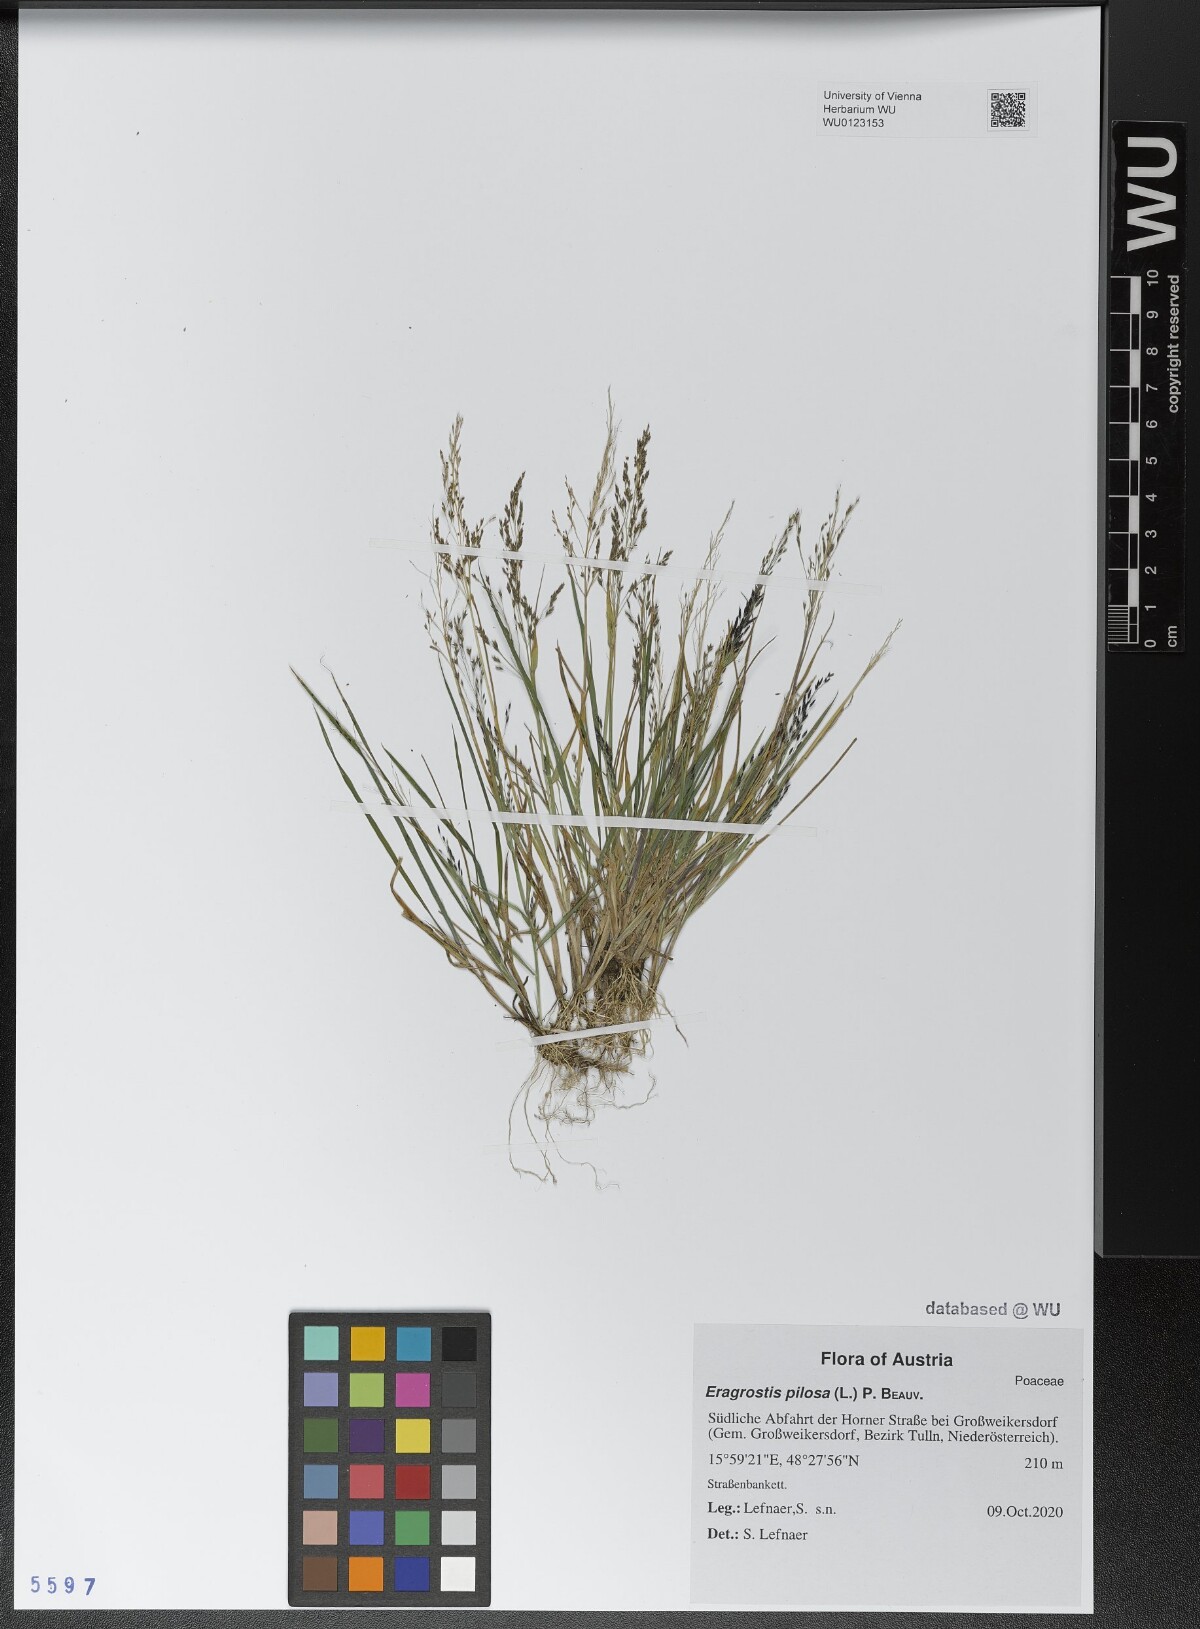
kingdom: Plantae
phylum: Tracheophyta
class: Liliopsida
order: Poales
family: Poaceae
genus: Eragrostis
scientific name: Eragrostis pilosa
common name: Indian lovegrass
